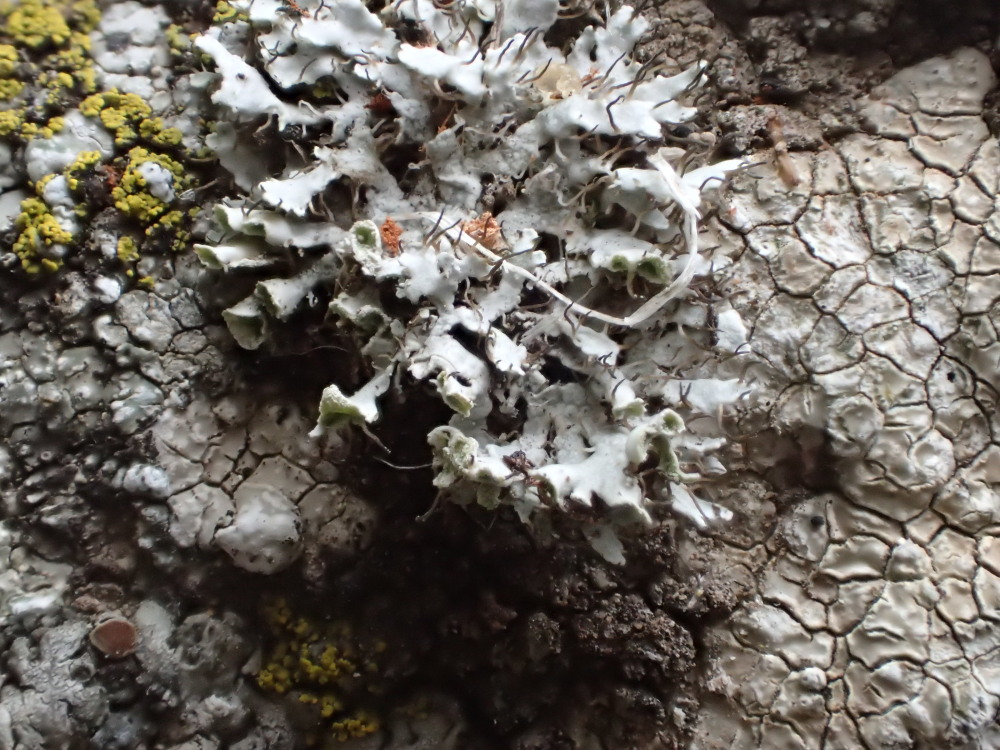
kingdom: Fungi
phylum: Ascomycota
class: Lecanoromycetes
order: Caliciales
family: Physciaceae
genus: Physcia
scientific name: Physcia adscendens
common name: hætte-rosetlav
